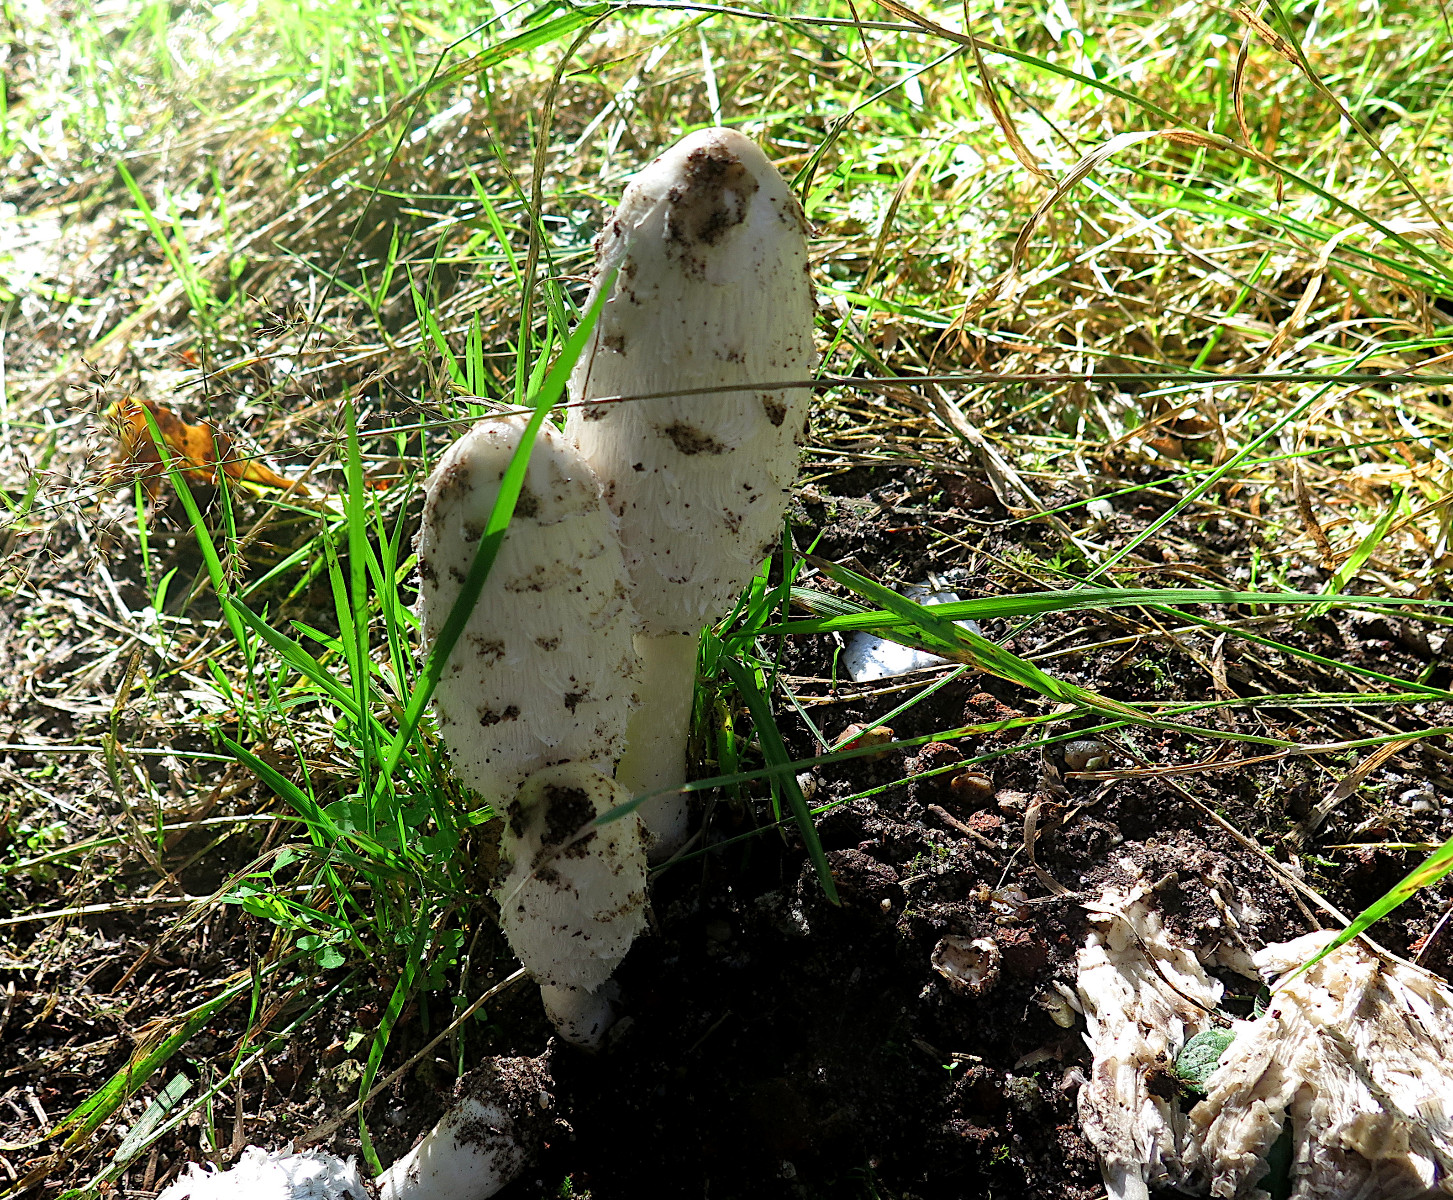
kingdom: Fungi
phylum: Basidiomycota
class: Agaricomycetes
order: Agaricales
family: Agaricaceae
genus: Coprinus
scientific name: Coprinus comatus
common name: stor parykhat
